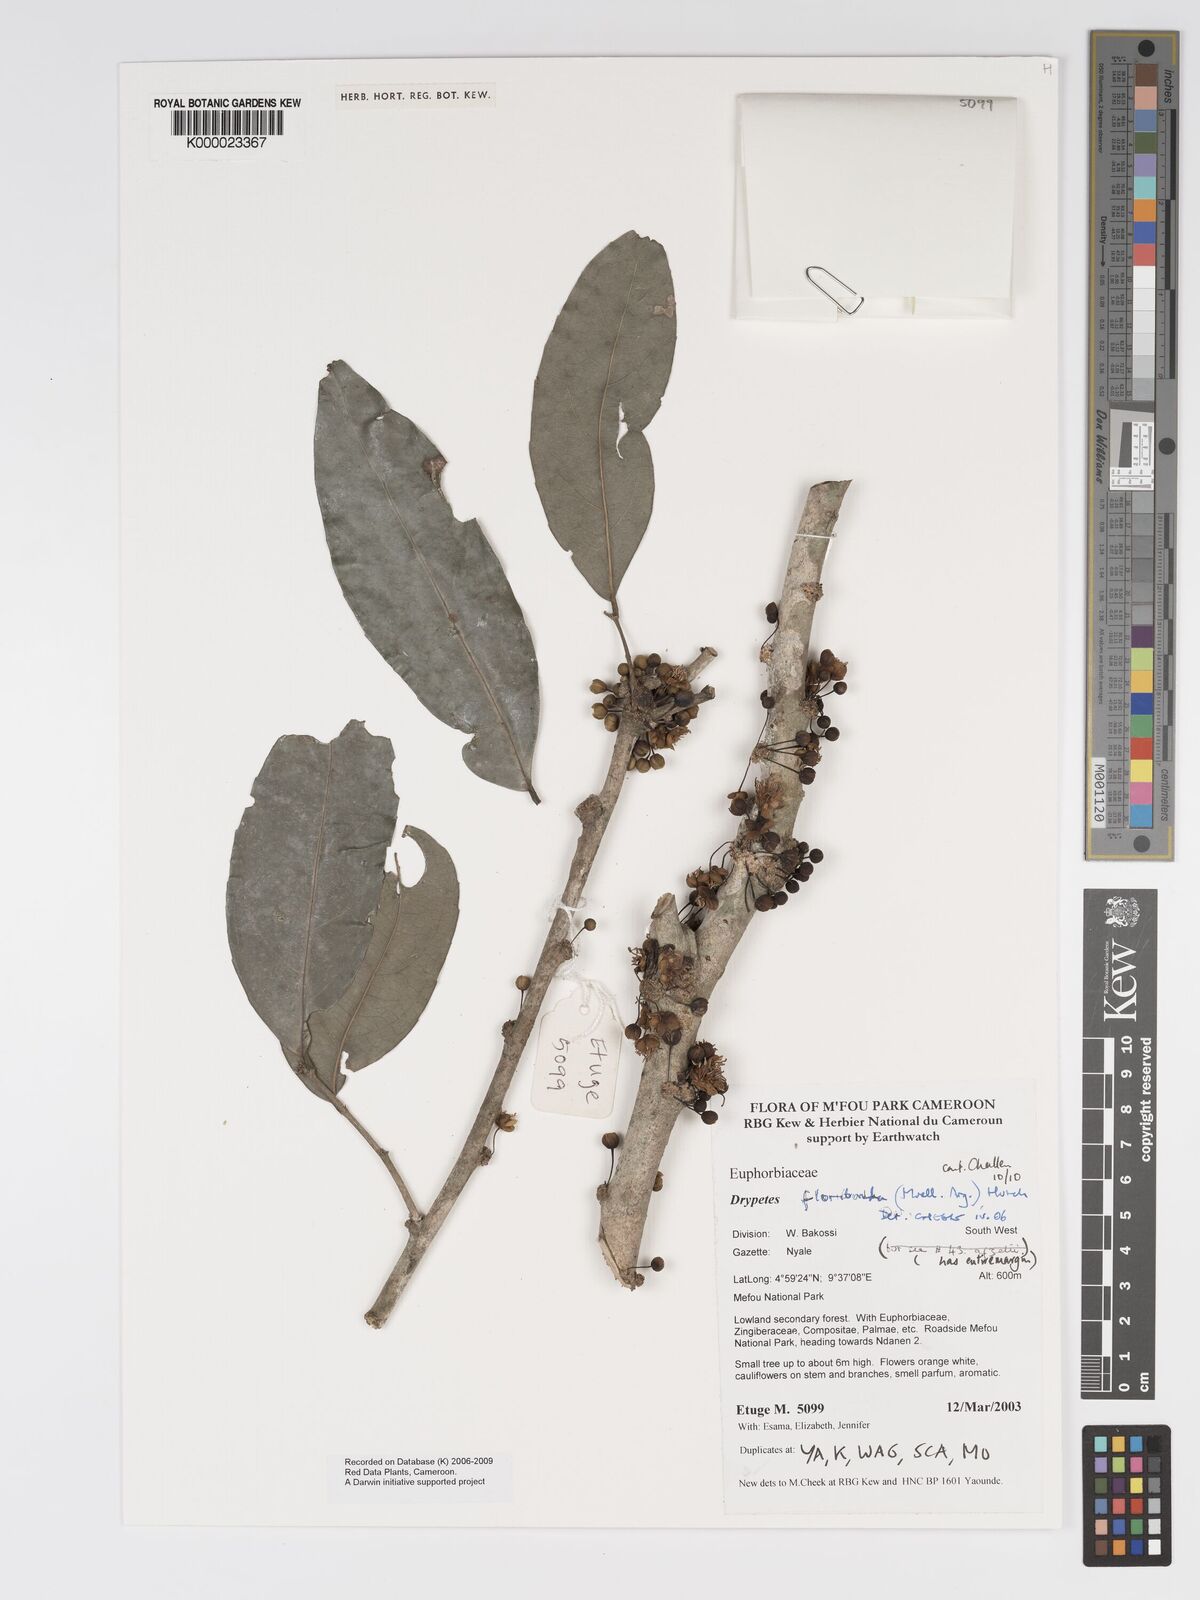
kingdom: Plantae
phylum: Tracheophyta
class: Magnoliopsida
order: Malpighiales
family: Putranjivaceae
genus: Drypetes
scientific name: Drypetes
